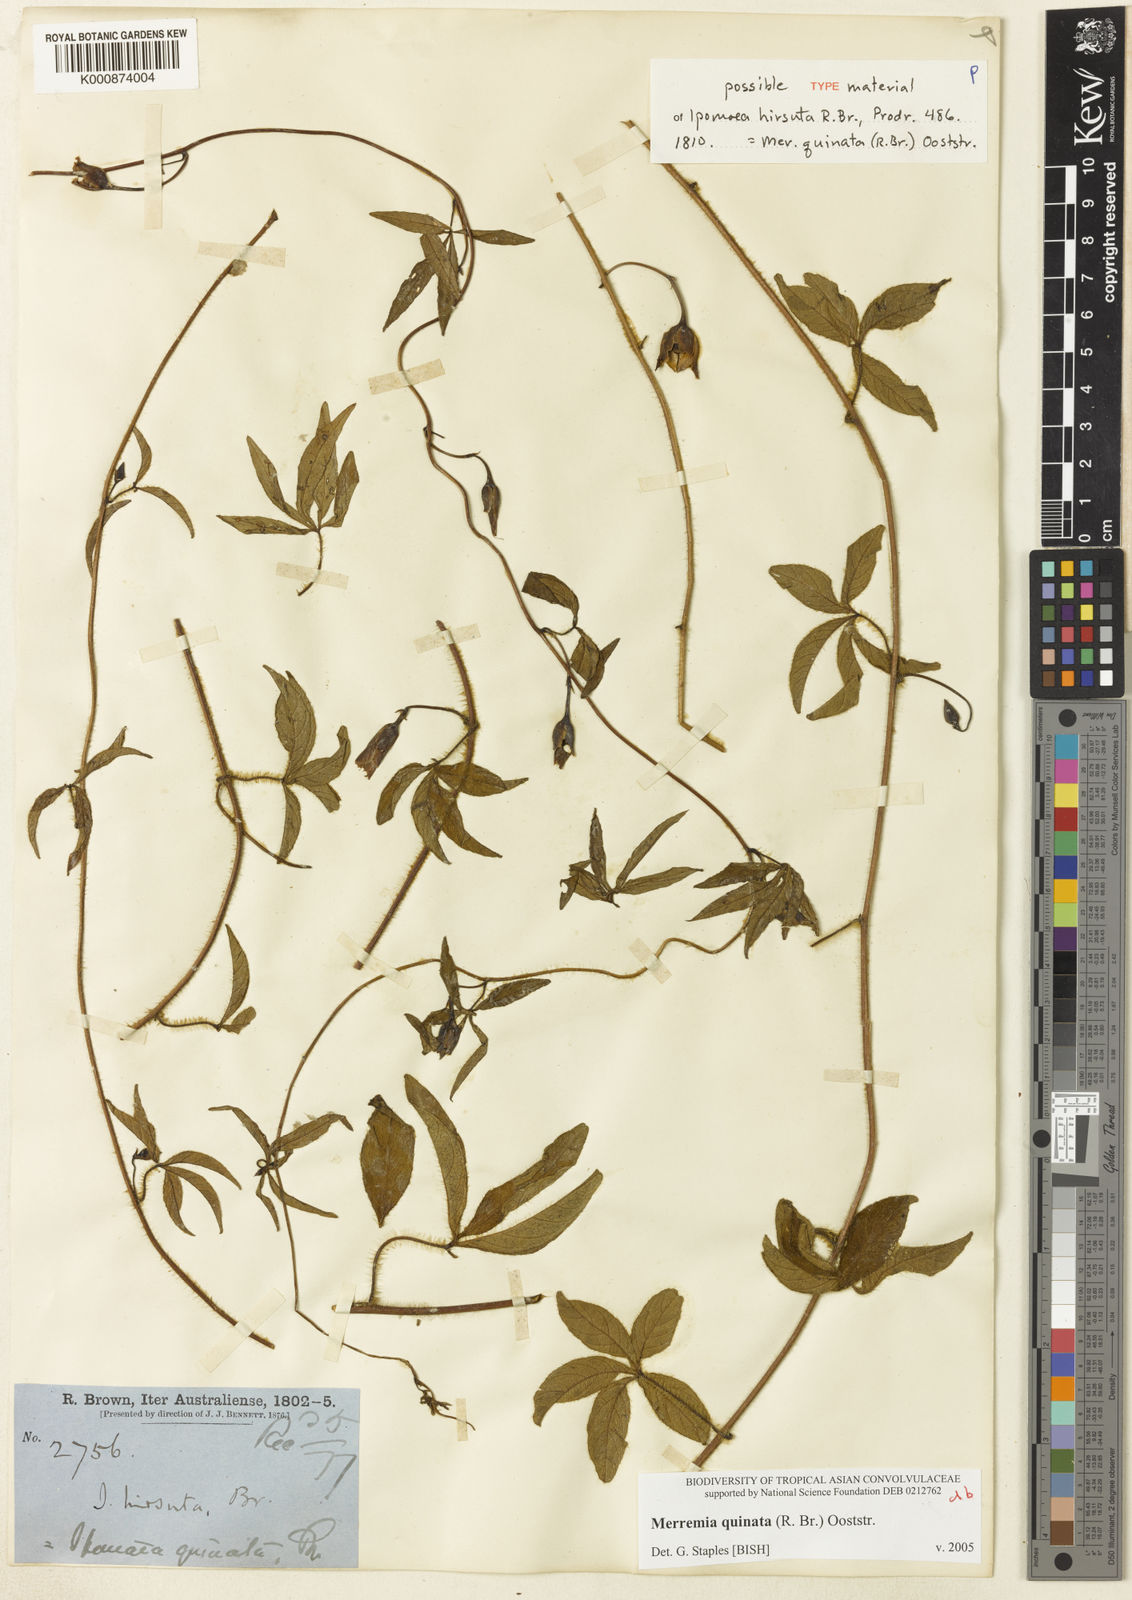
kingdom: Plantae
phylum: Tracheophyta
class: Magnoliopsida
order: Solanales
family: Convolvulaceae
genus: Distimake
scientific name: Distimake
